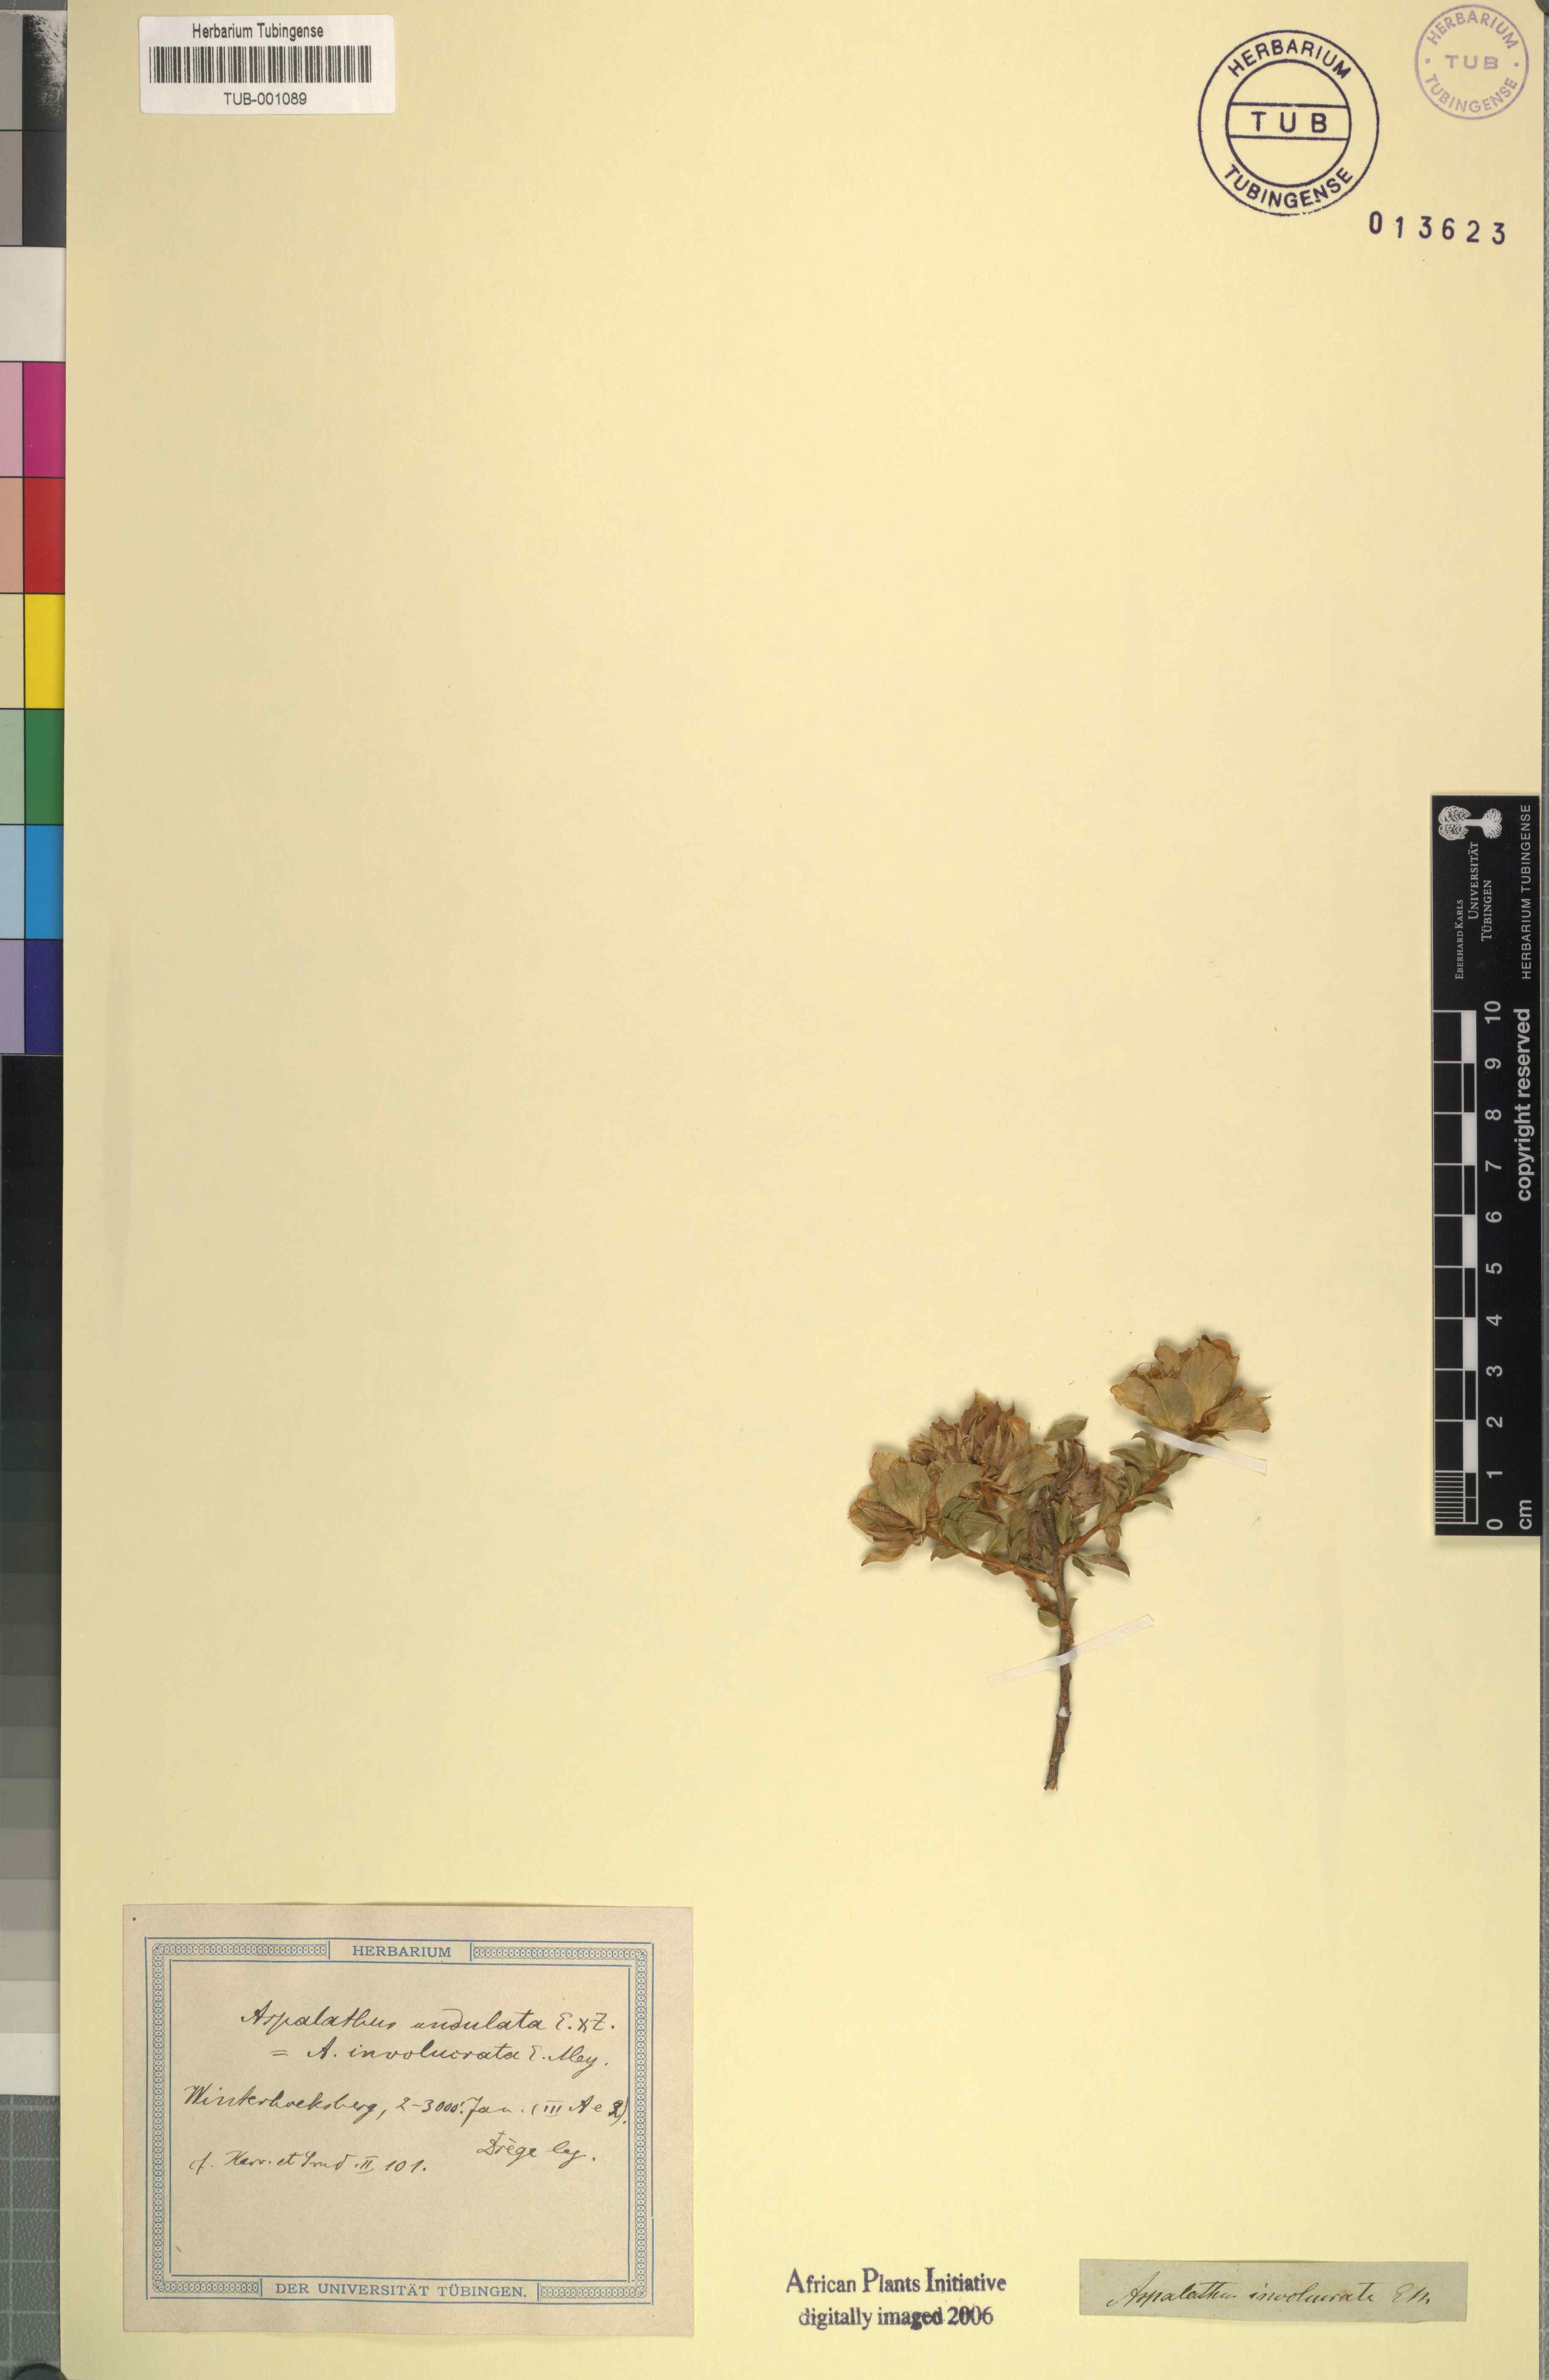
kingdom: Plantae
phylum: Tracheophyta
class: Magnoliopsida
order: Fabales
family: Fabaceae
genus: Aspalathus
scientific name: Aspalathus fasciculata
